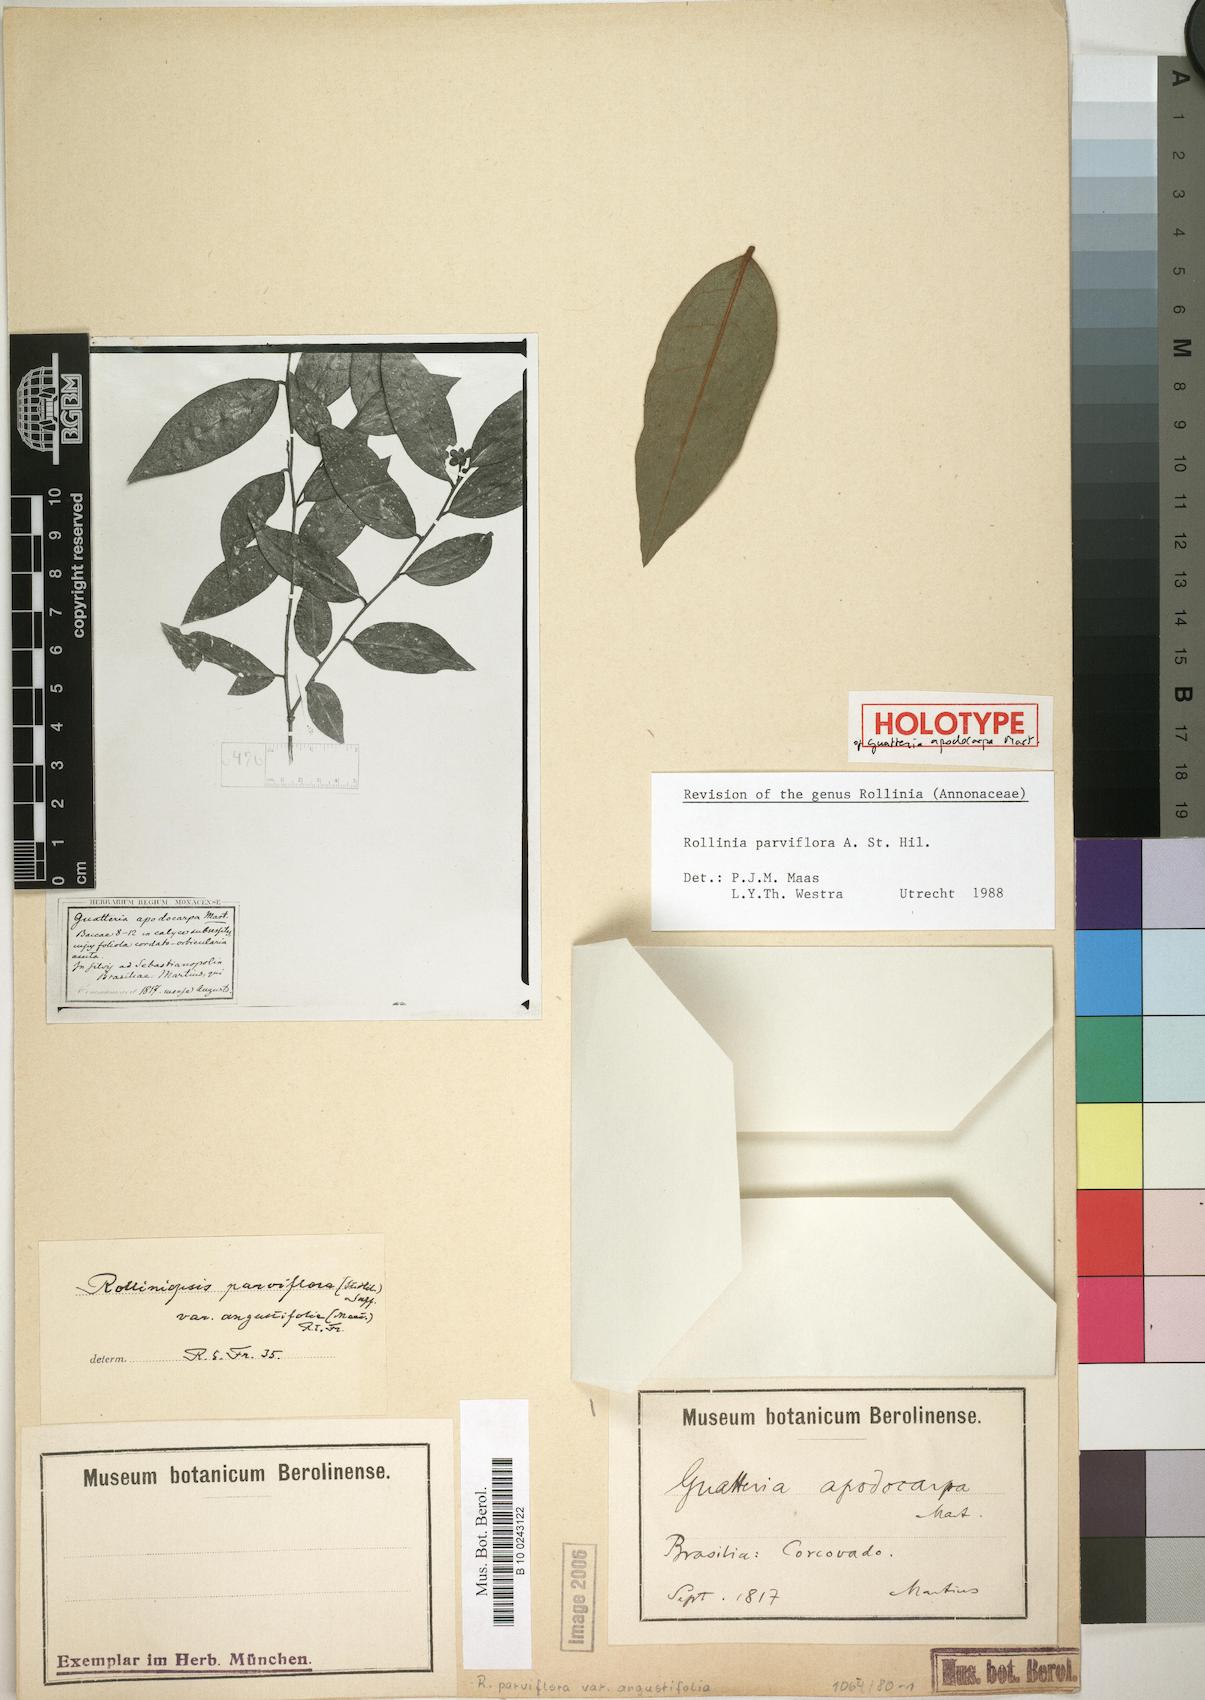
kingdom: Plantae
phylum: Tracheophyta
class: Magnoliopsida
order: Magnoliales
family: Annonaceae
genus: Annona
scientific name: Annona parviflora
